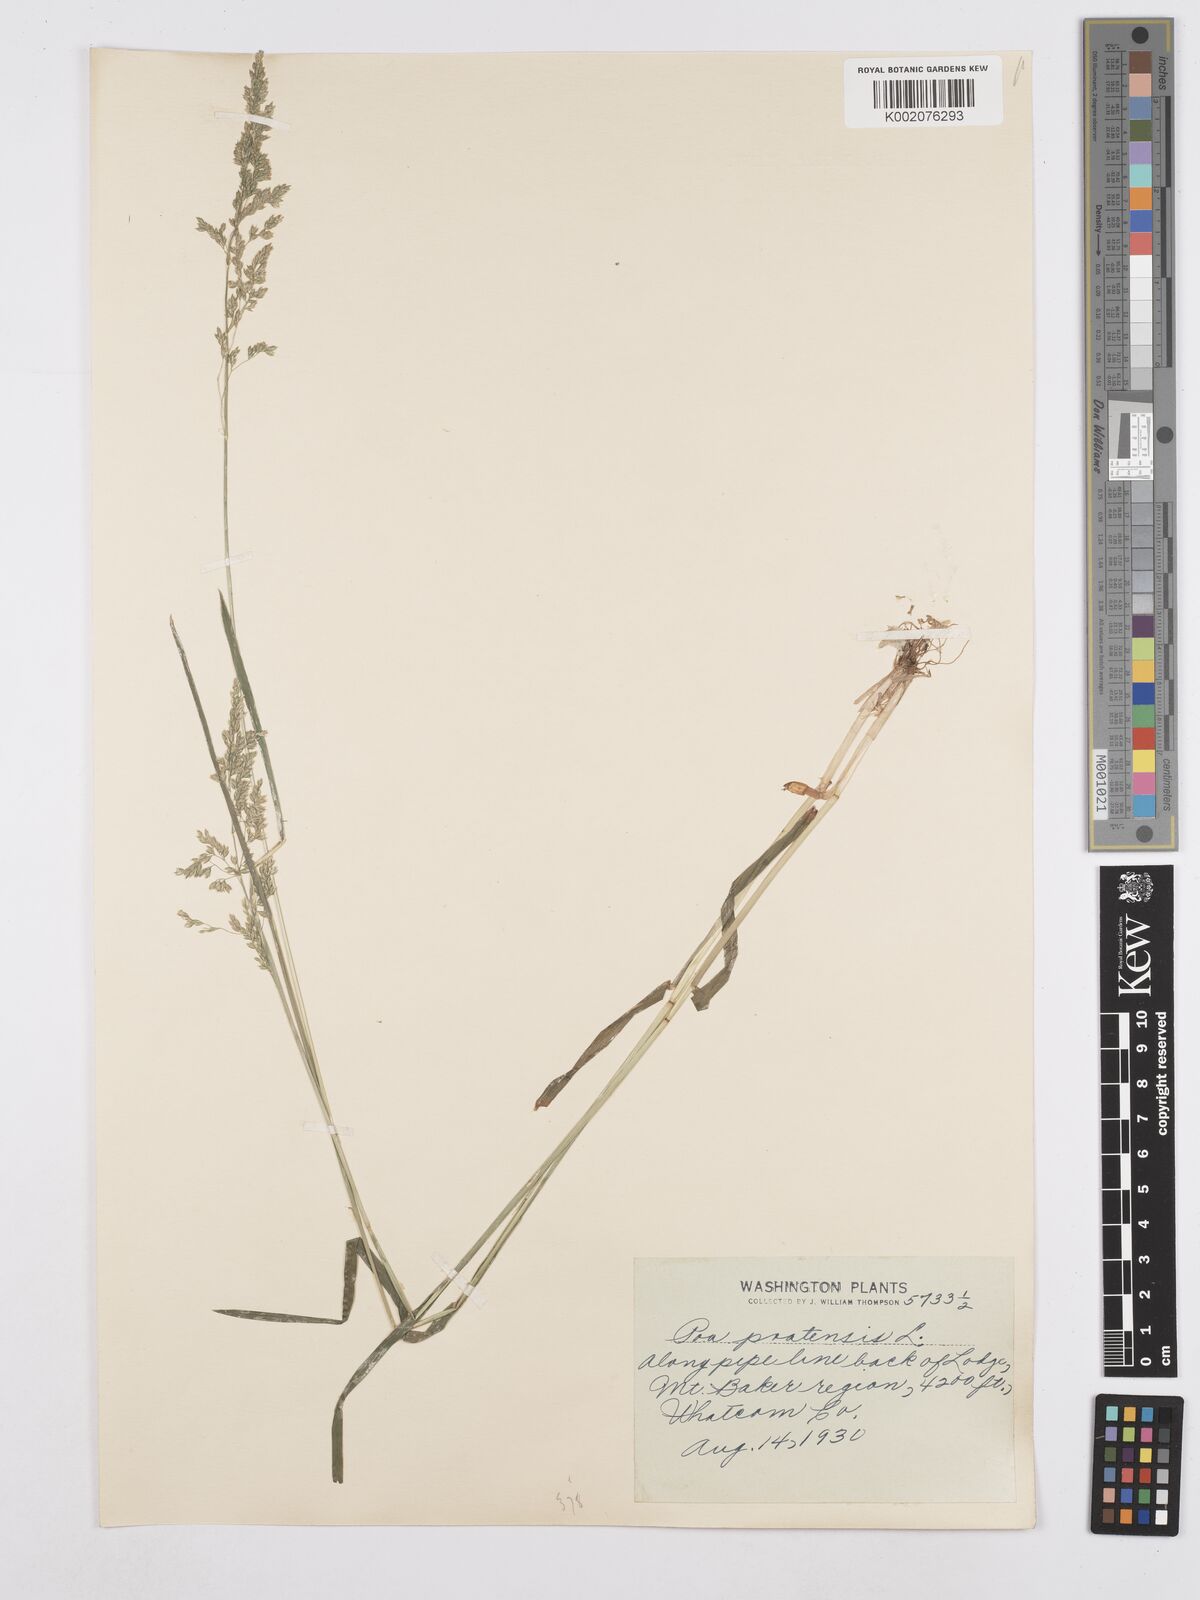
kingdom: Plantae
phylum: Tracheophyta
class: Liliopsida
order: Poales
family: Poaceae
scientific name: Poaceae
